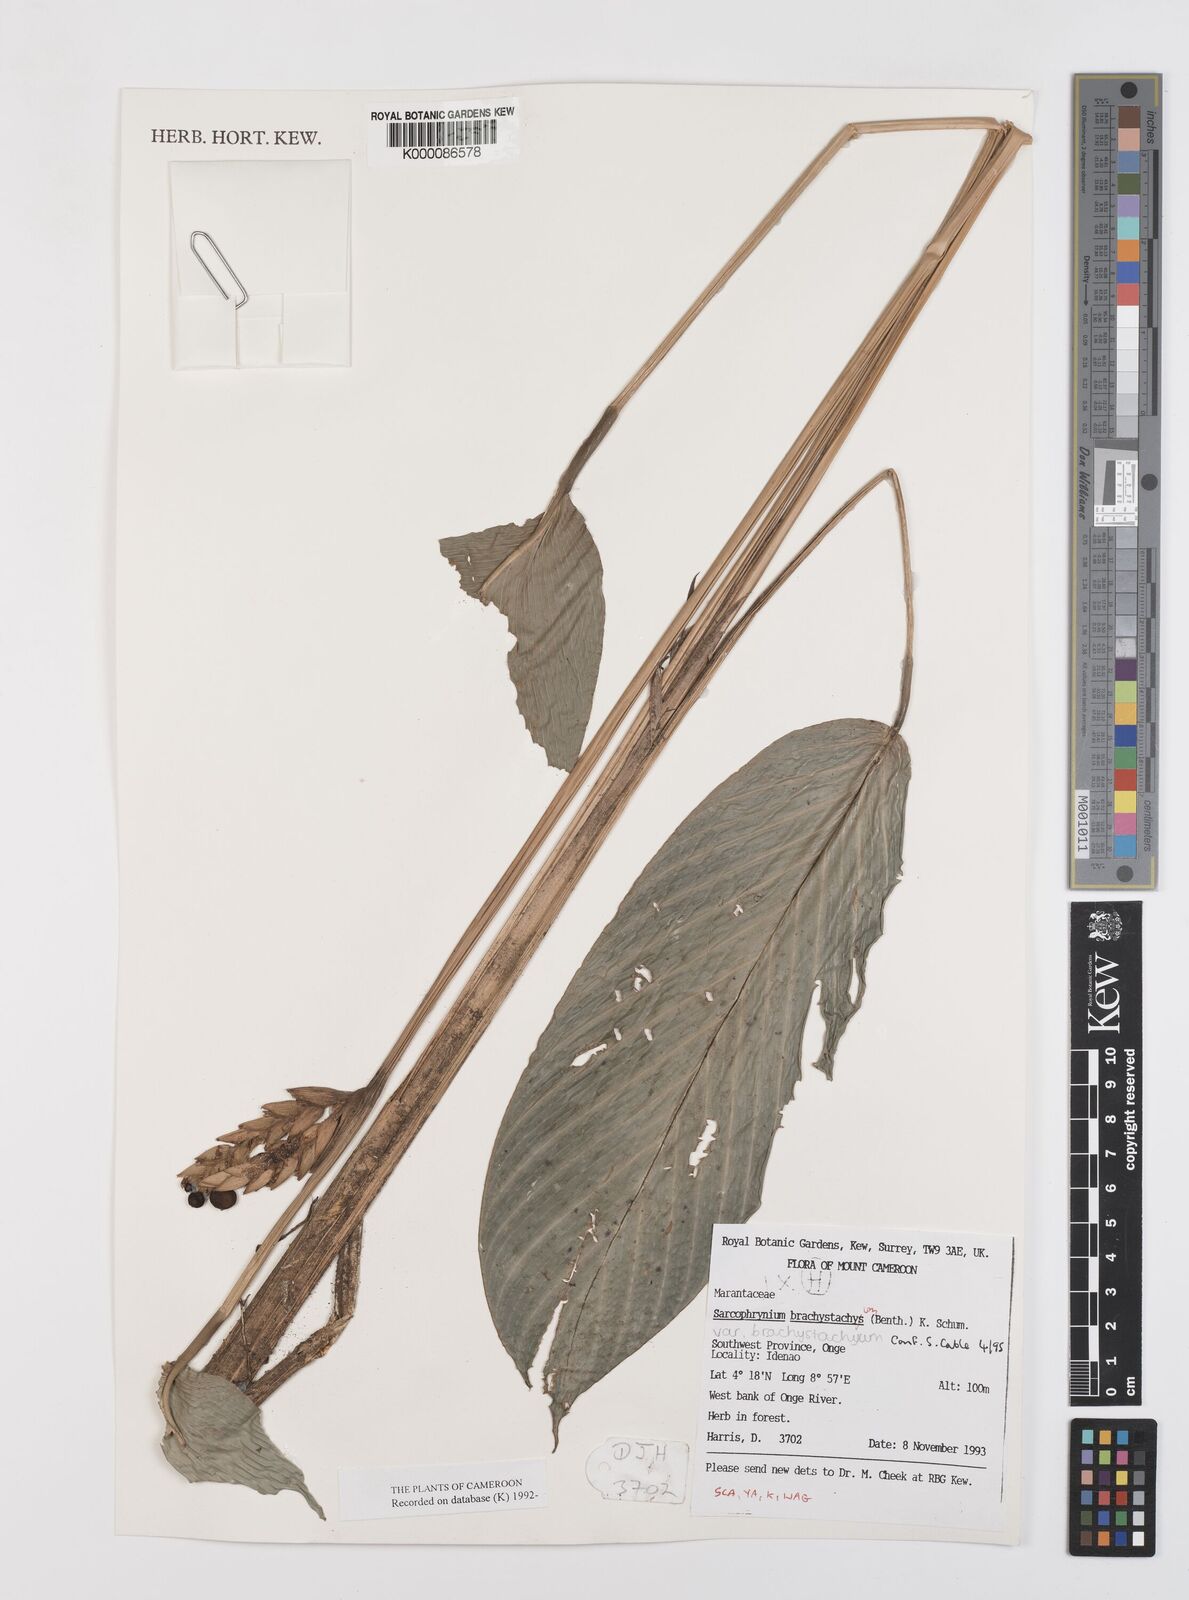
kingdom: Plantae
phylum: Tracheophyta
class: Liliopsida
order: Zingiberales
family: Marantaceae
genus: Sarcophrynium
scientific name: Sarcophrynium
